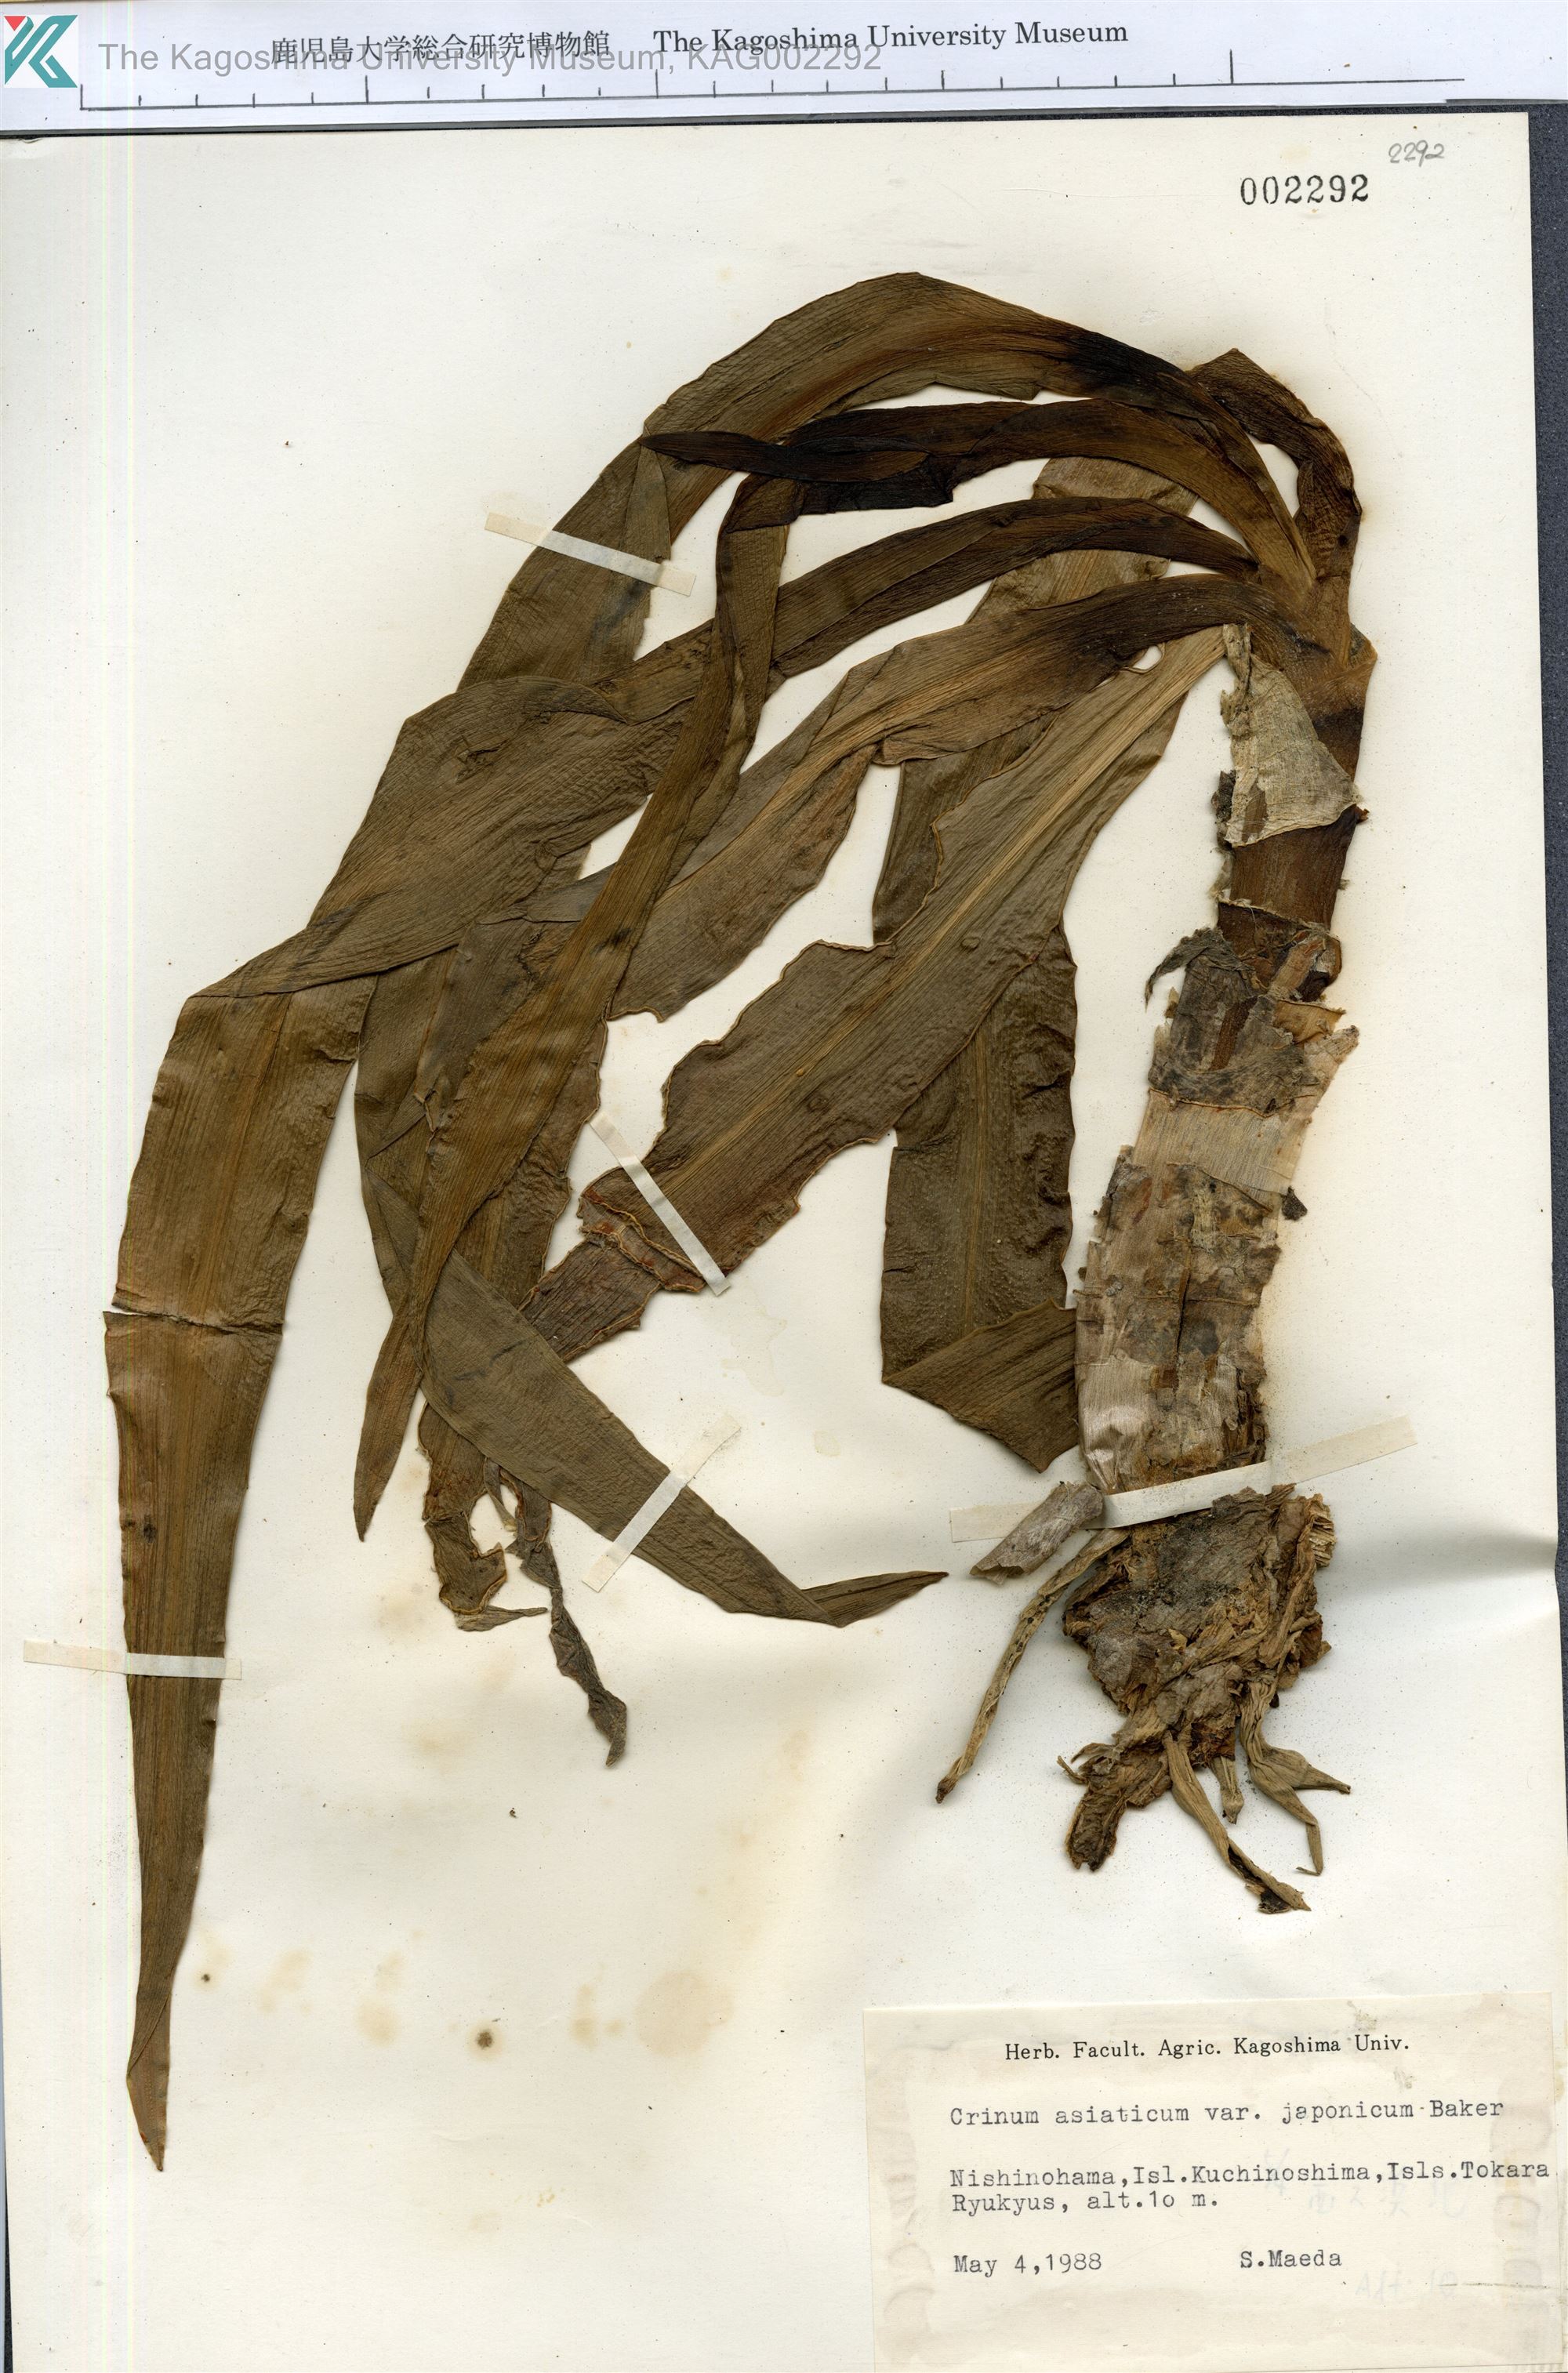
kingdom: Plantae
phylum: Tracheophyta
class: Liliopsida
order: Asparagales
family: Amaryllidaceae
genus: Crinum
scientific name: Crinum asiaticum
